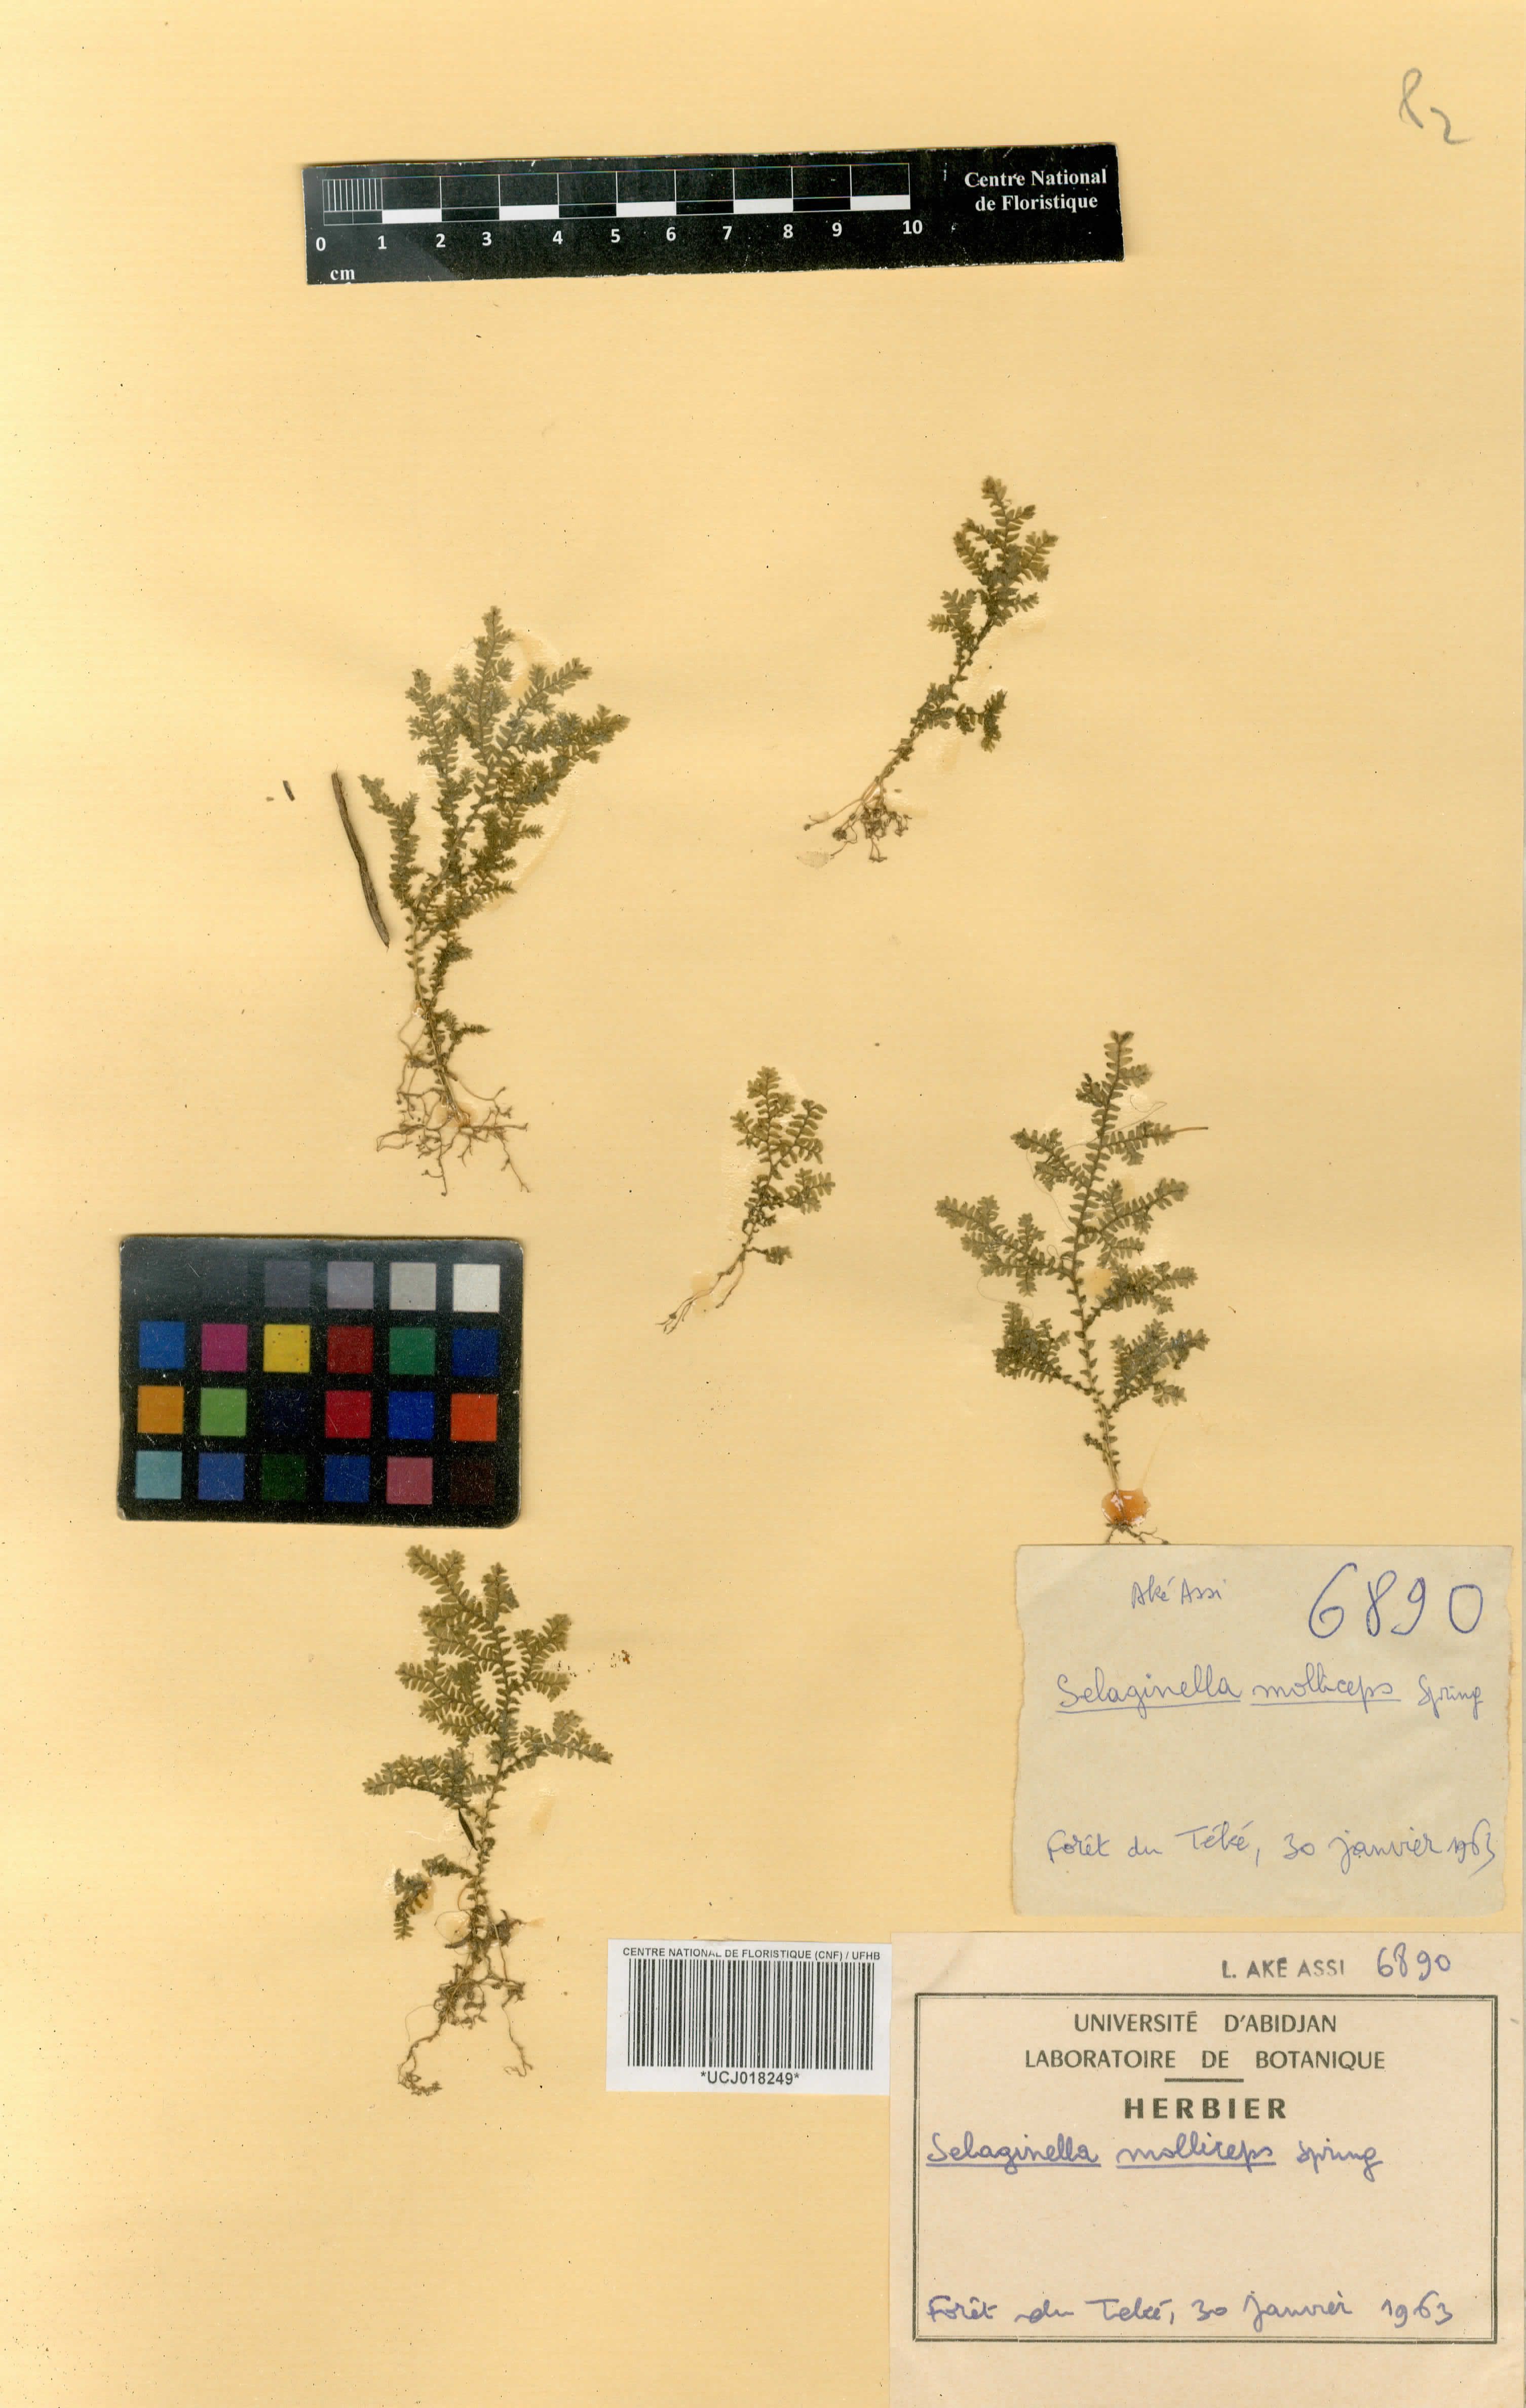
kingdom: Plantae
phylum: Tracheophyta
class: Lycopodiopsida
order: Selaginellales
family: Selaginellaceae
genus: Selaginella
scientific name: Selaginella molliceps
